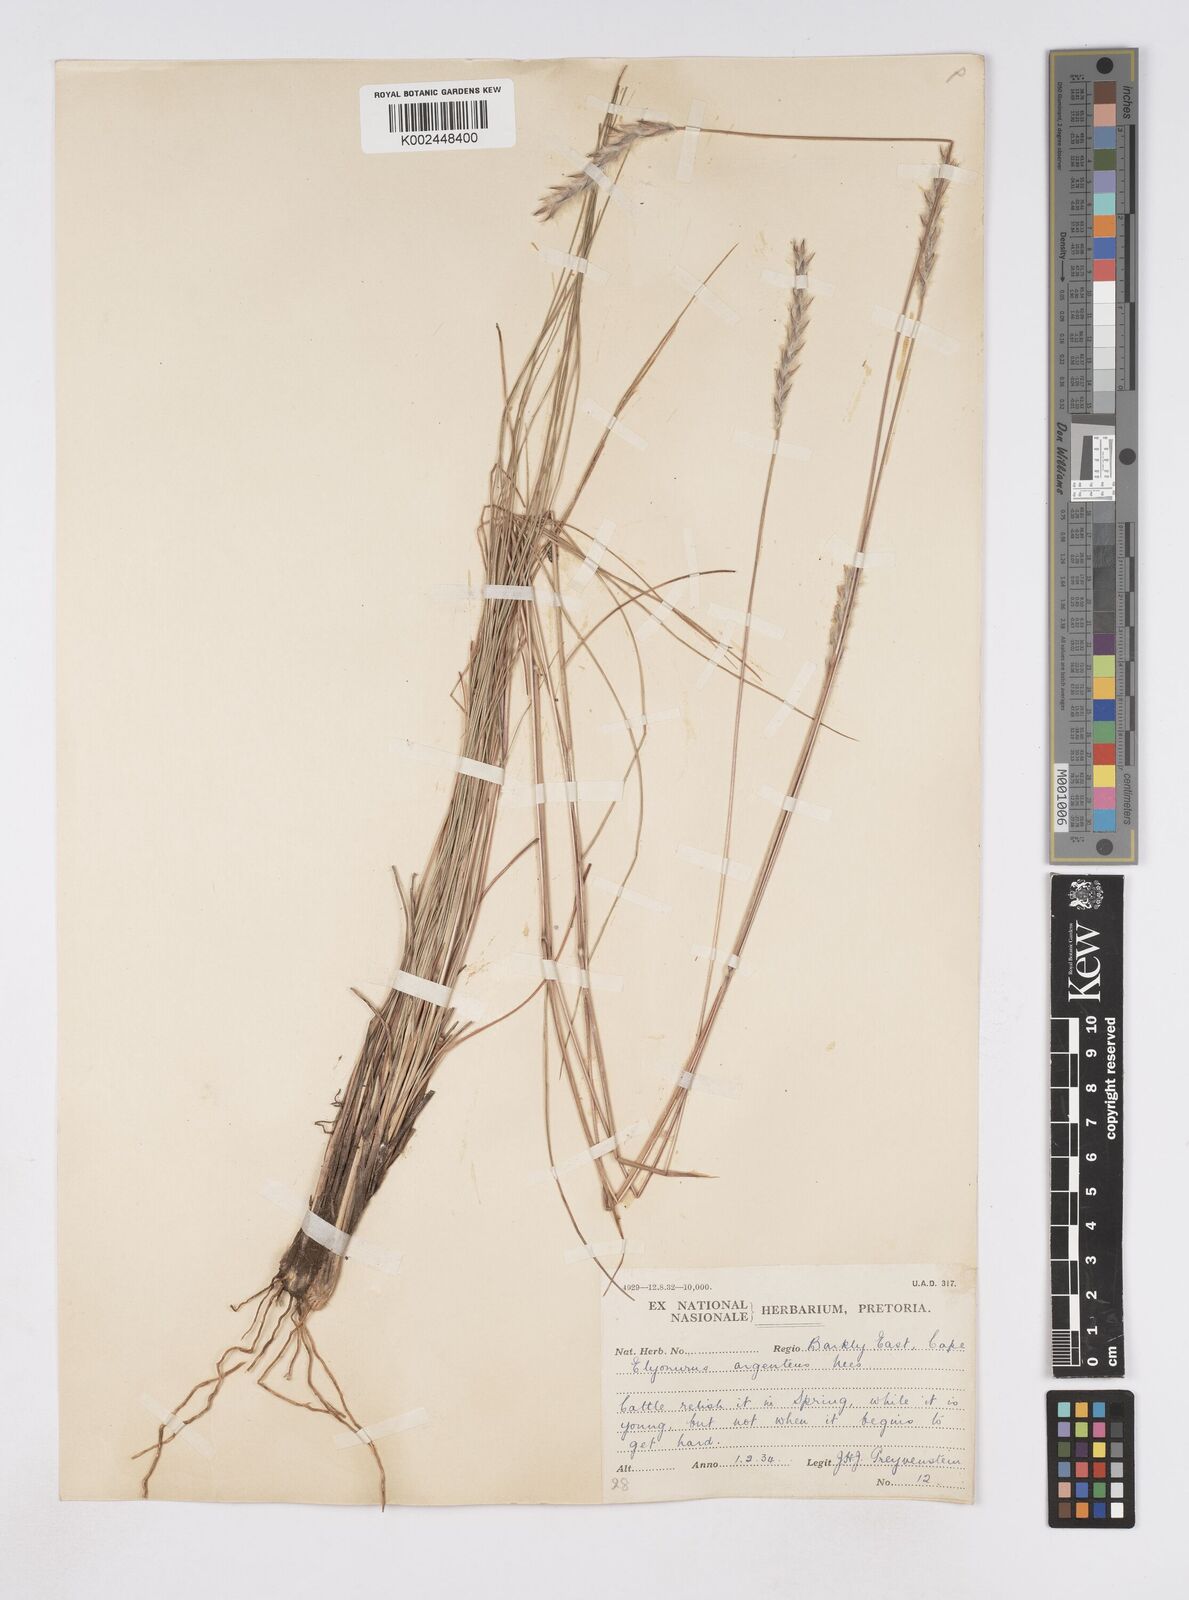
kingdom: Plantae
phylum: Tracheophyta
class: Liliopsida
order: Poales
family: Poaceae
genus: Elionurus
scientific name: Elionurus muticus
